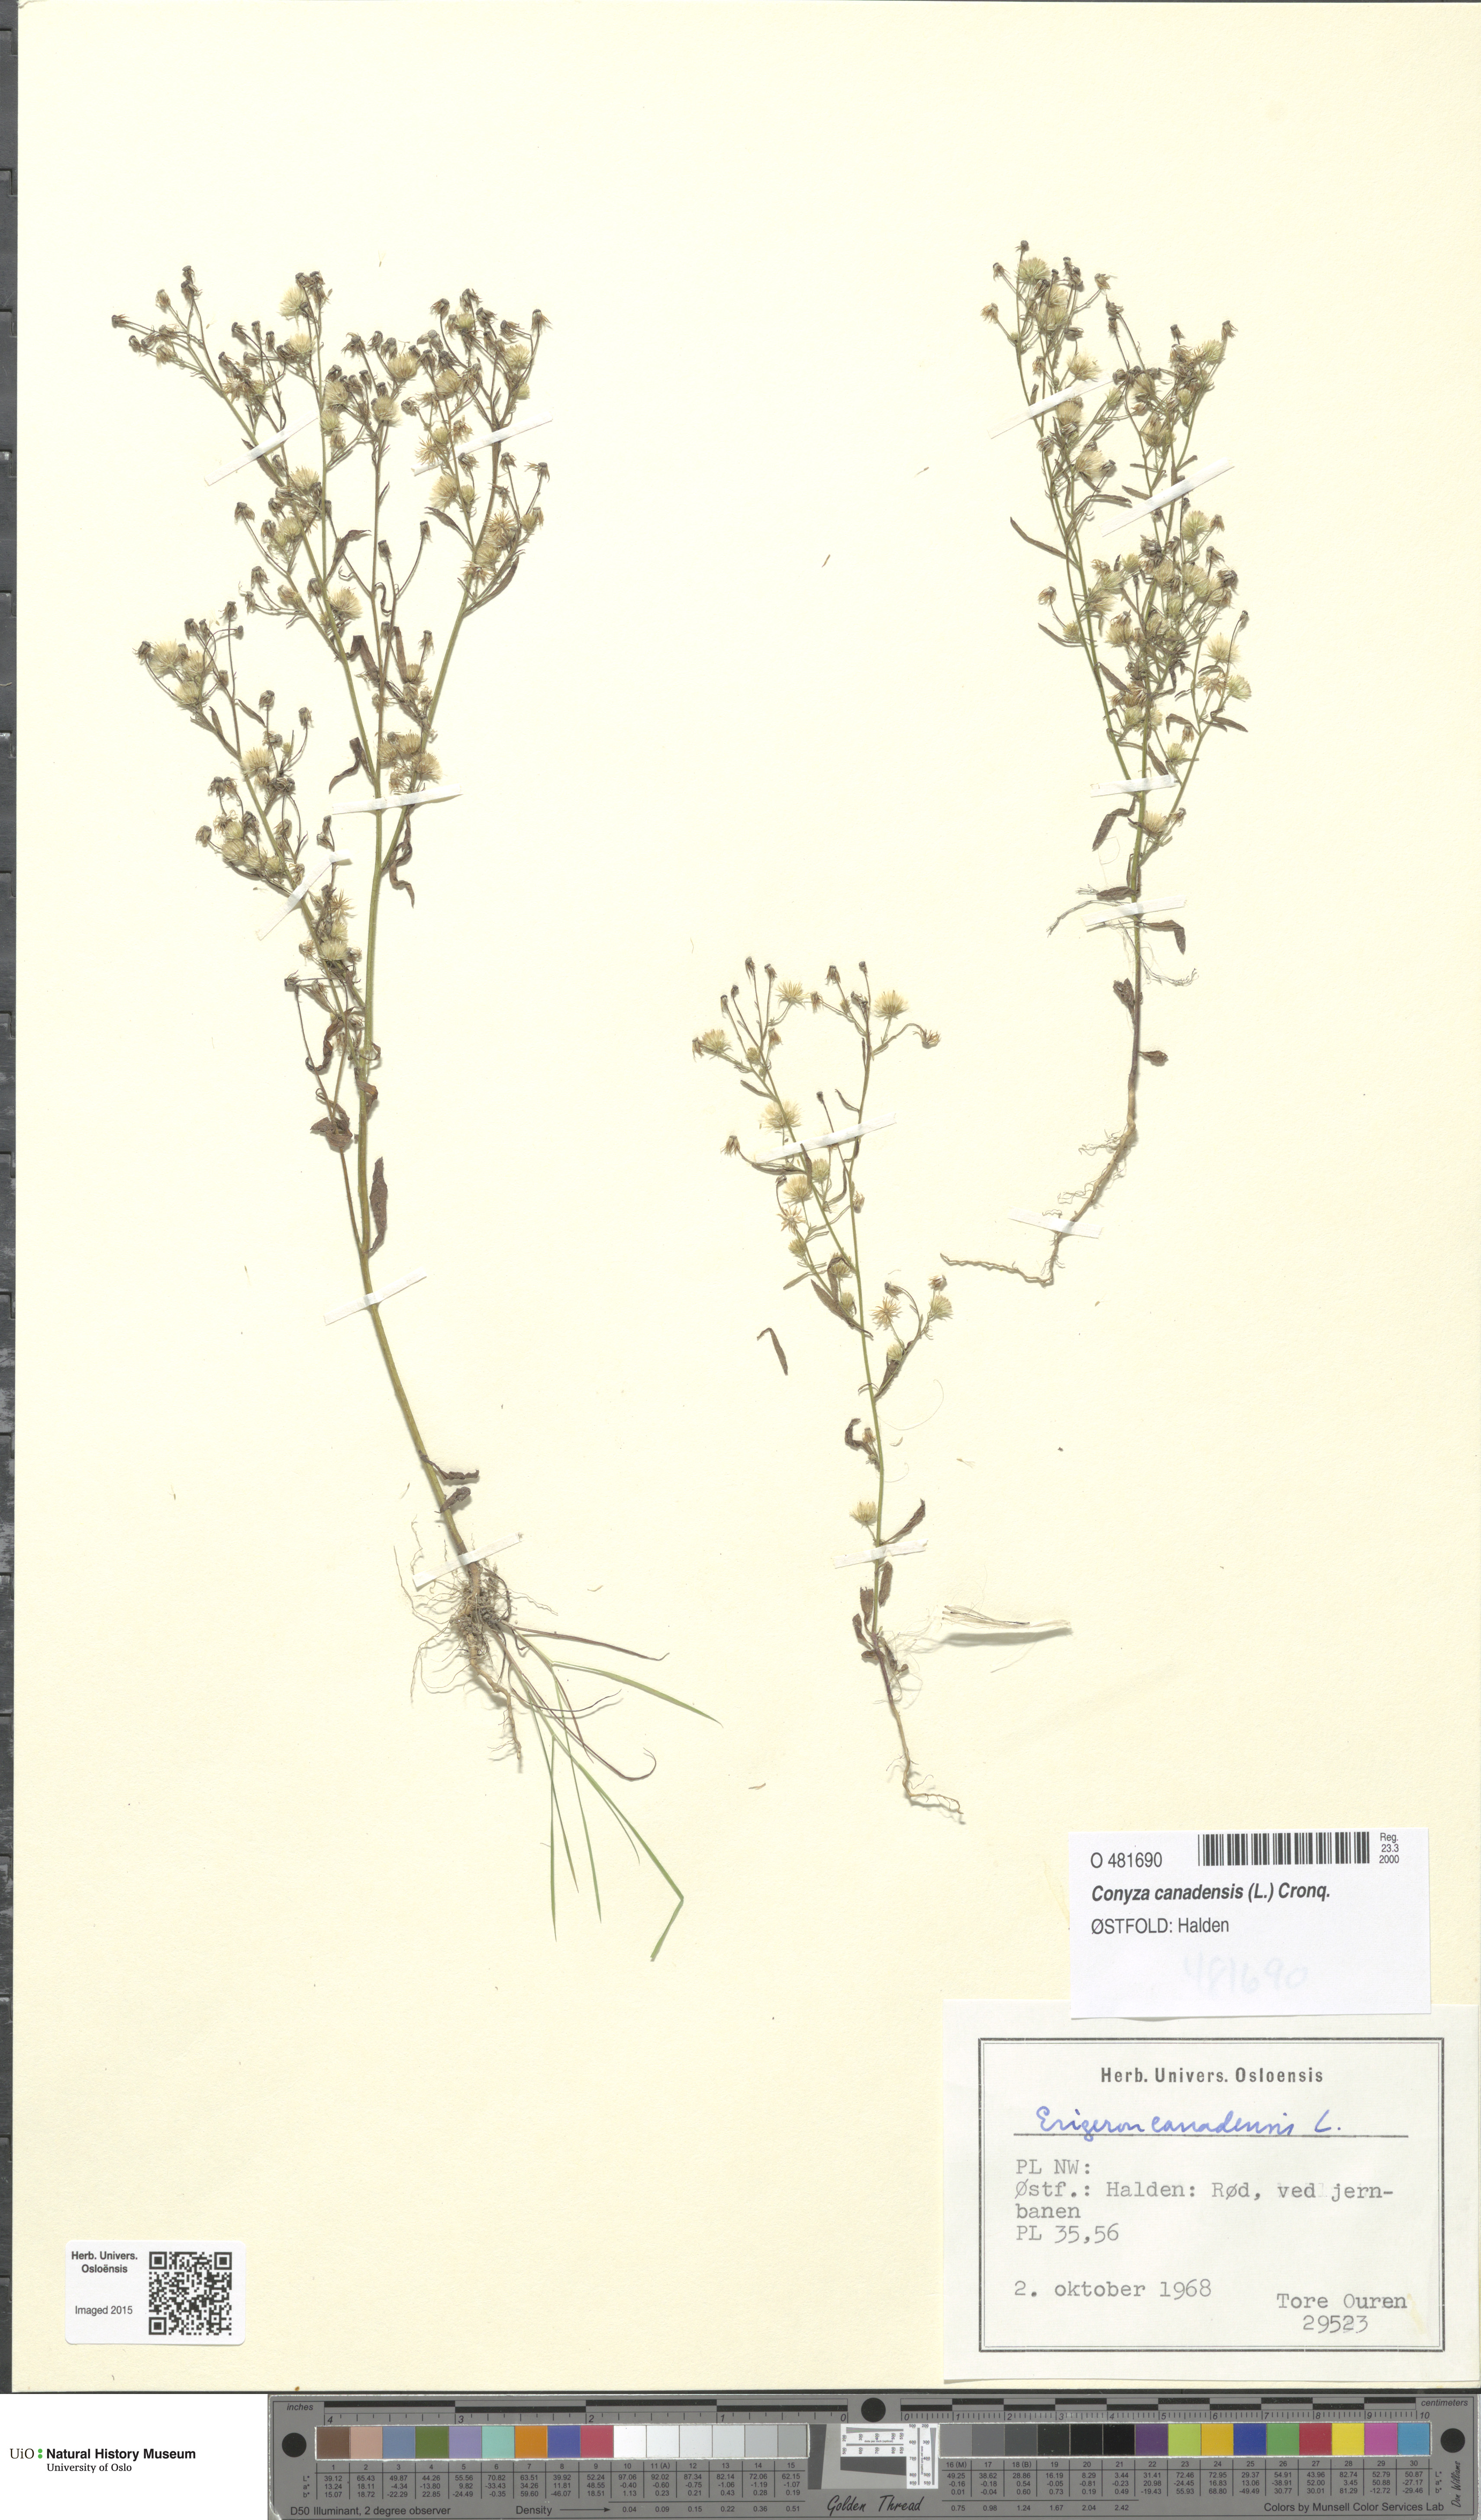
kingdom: Plantae
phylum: Tracheophyta
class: Magnoliopsida
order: Asterales
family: Asteraceae
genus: Erigeron
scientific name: Erigeron canadensis
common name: Canadian fleabane
